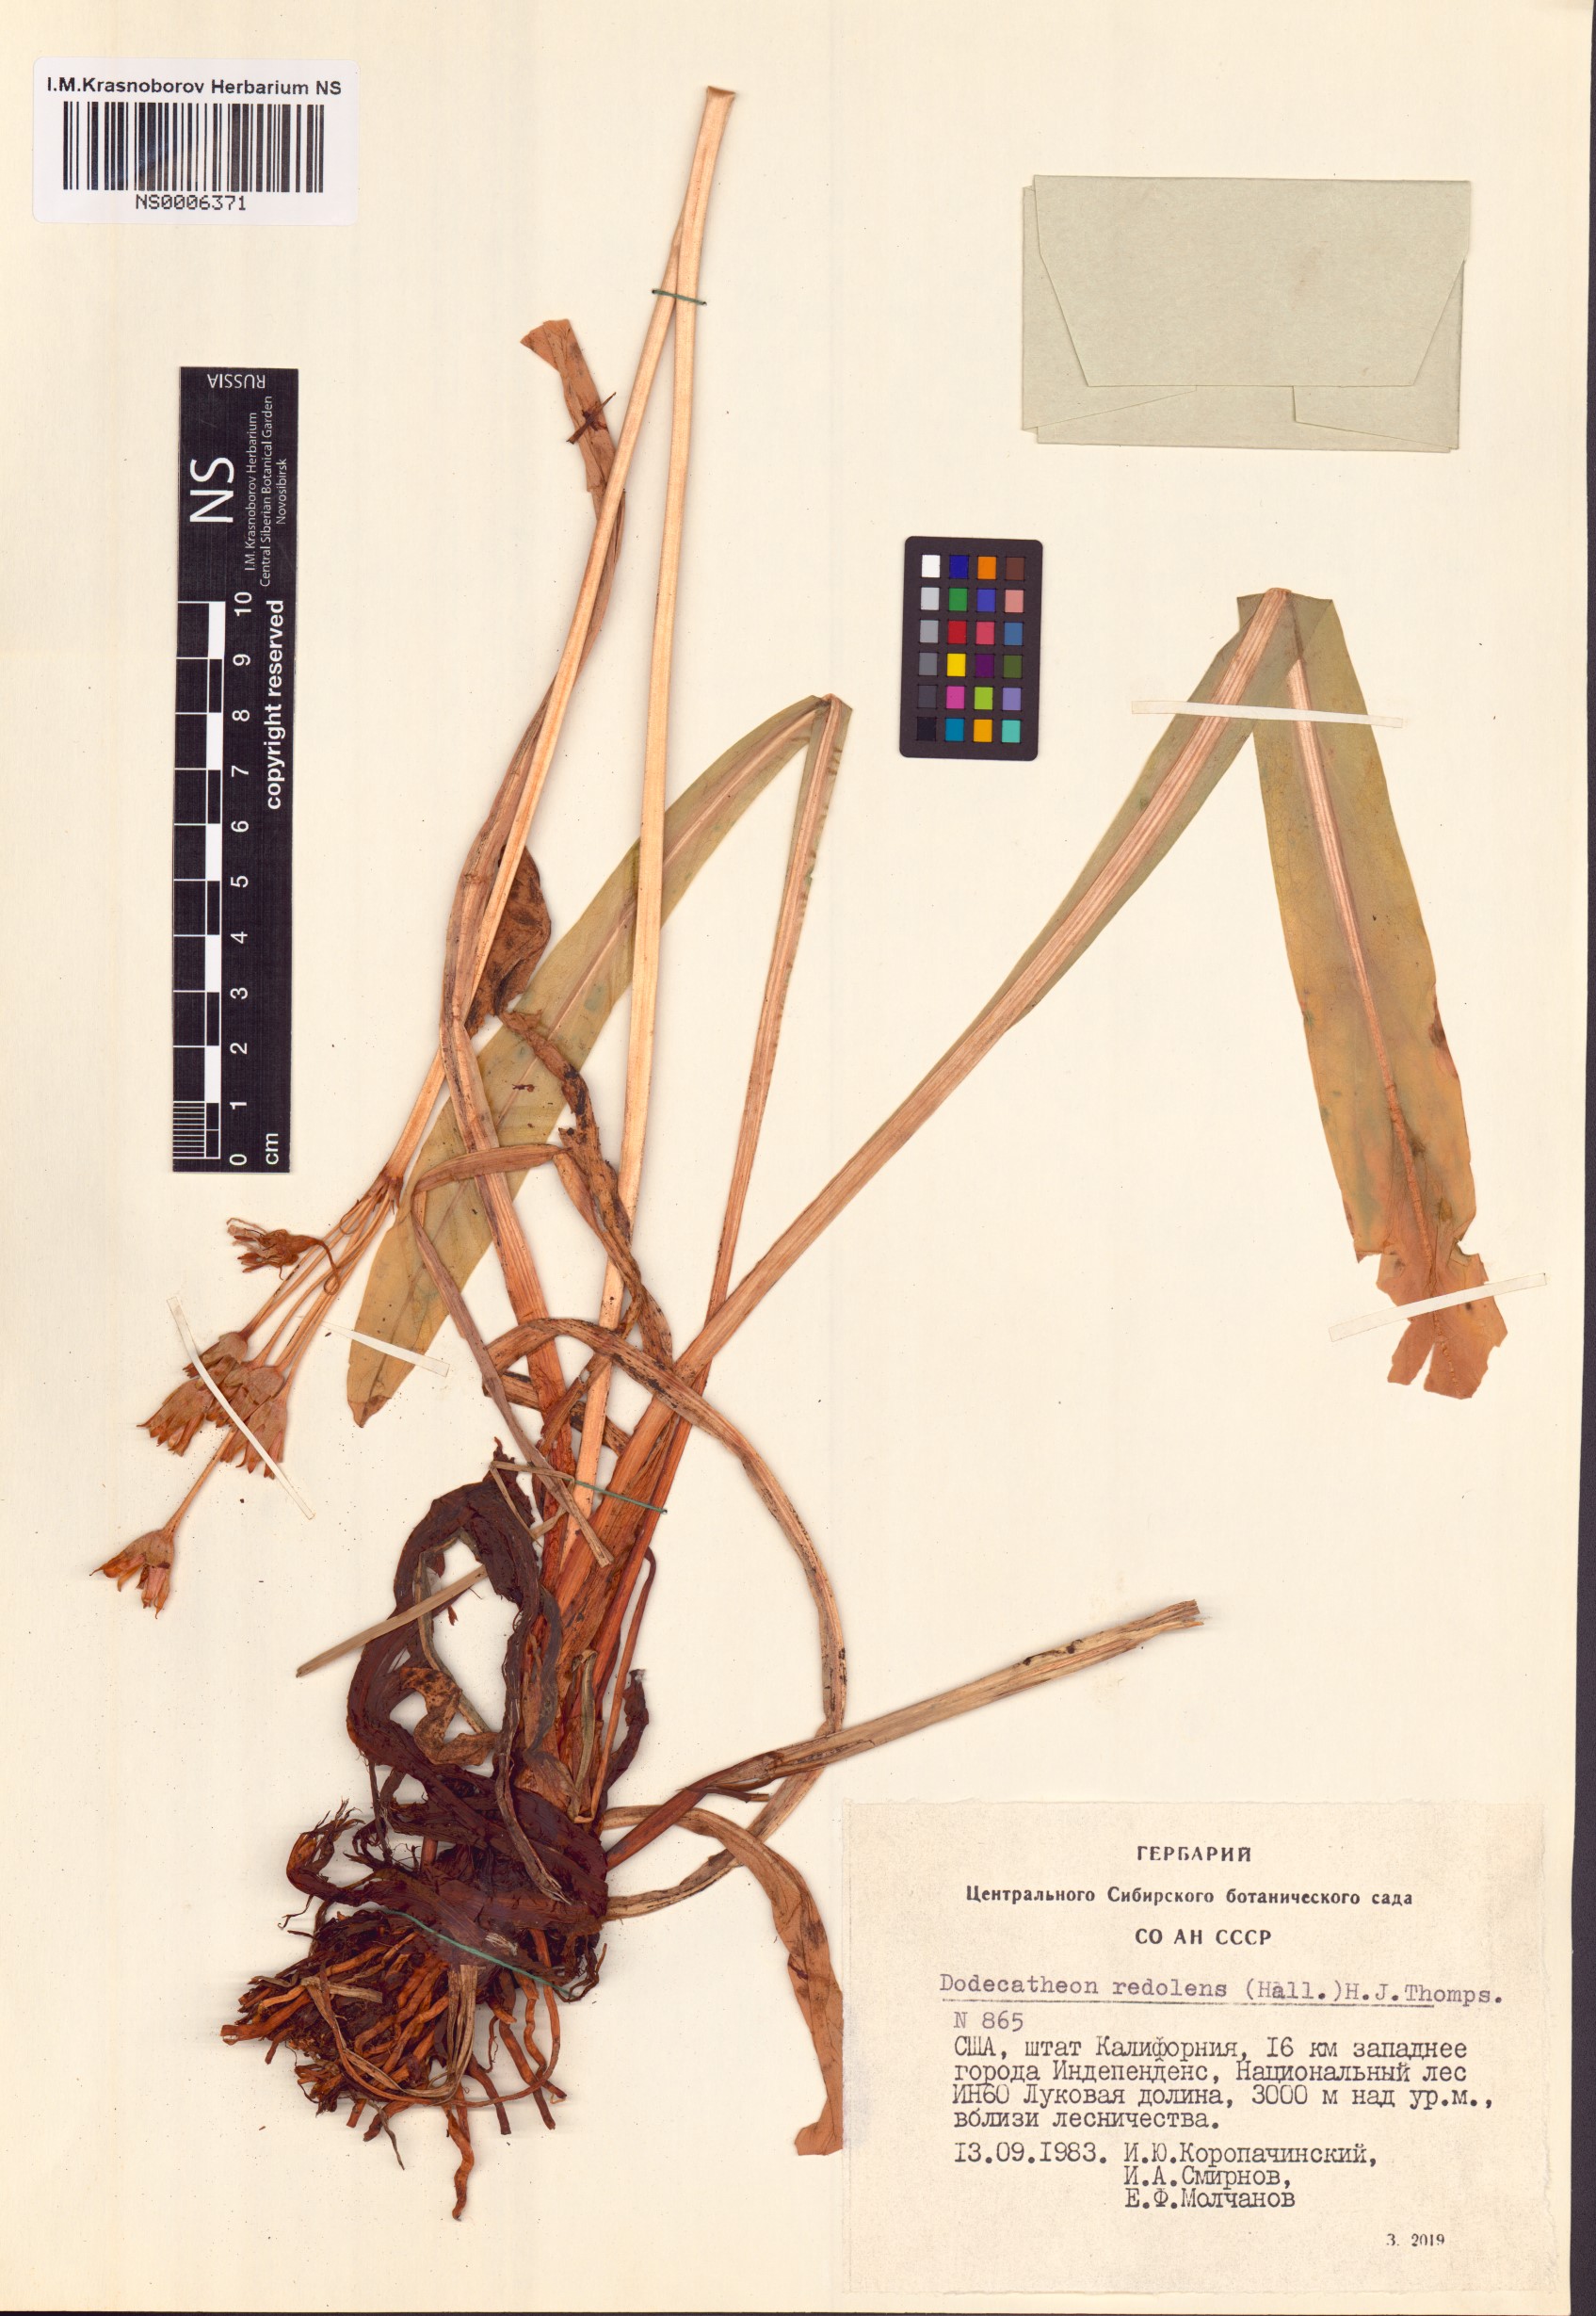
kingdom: Plantae
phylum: Tracheophyta
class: Magnoliopsida
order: Ericales
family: Primulaceae
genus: Dodecatheon
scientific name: Dodecatheon redolens
